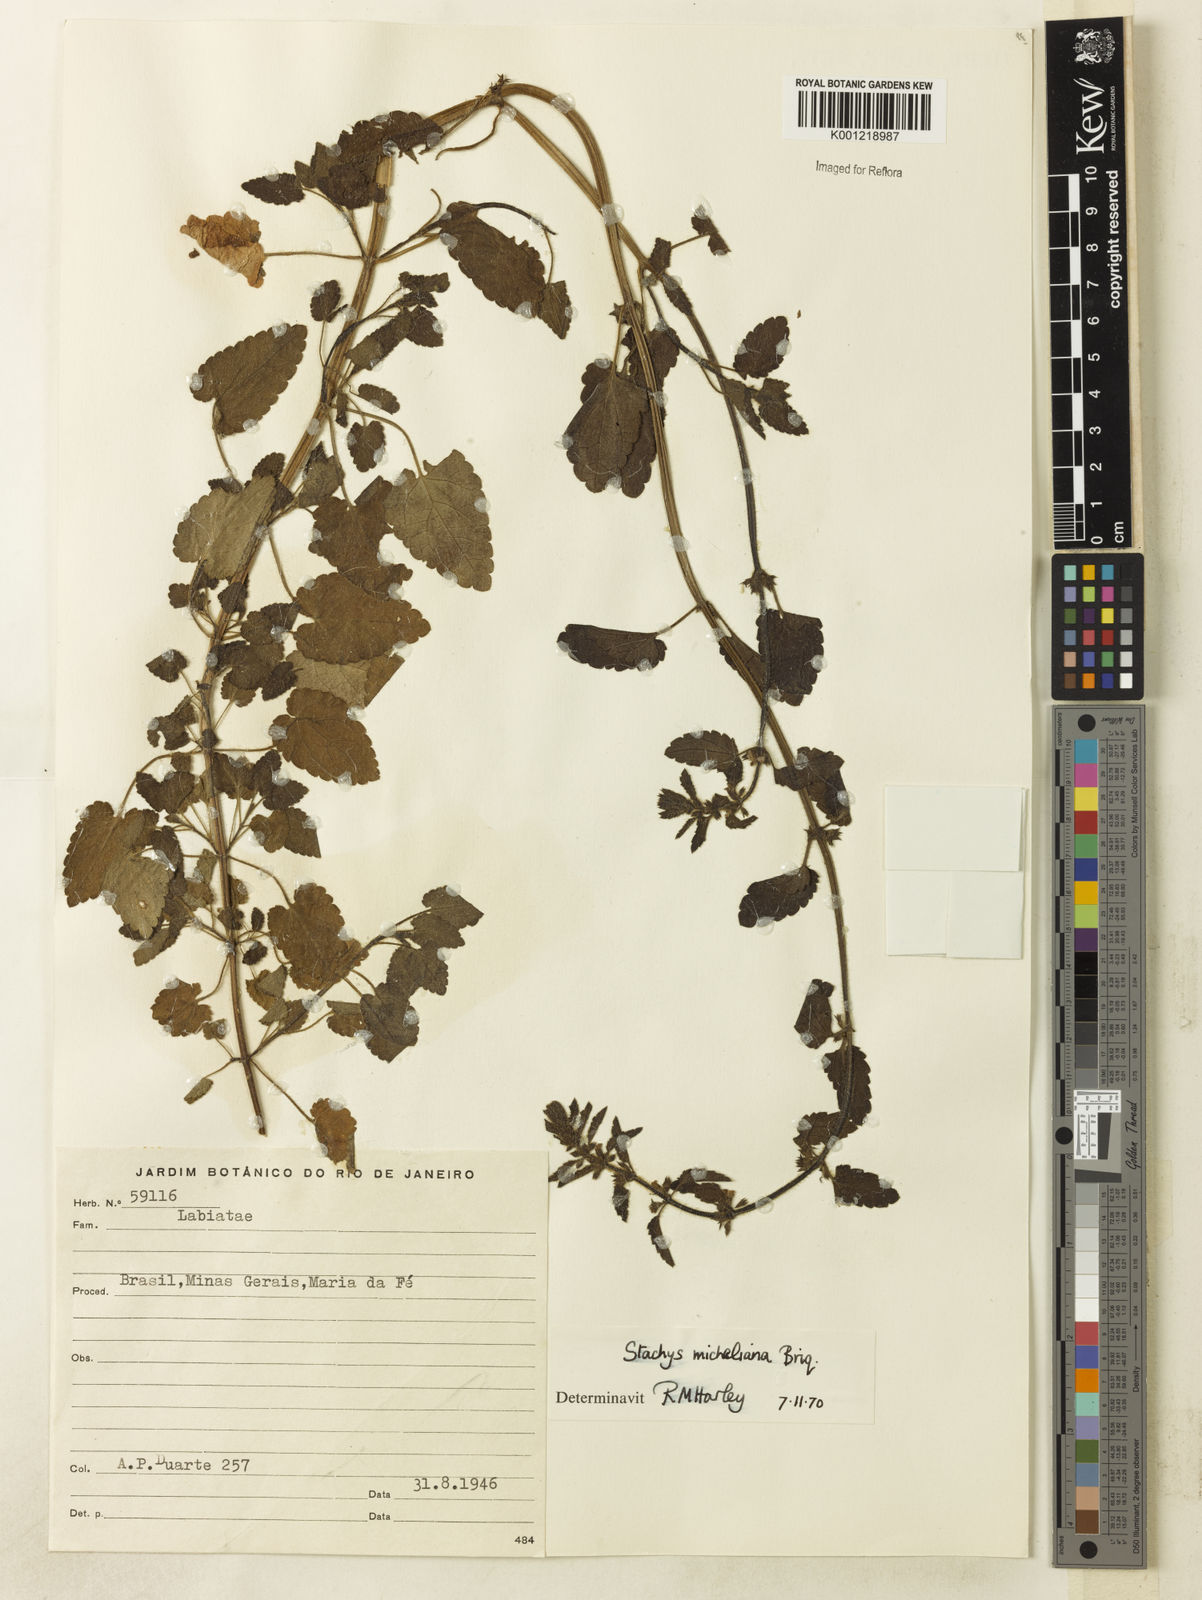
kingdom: Plantae
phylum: Tracheophyta
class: Magnoliopsida
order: Lamiales
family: Lamiaceae
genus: Stachys
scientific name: Stachys
